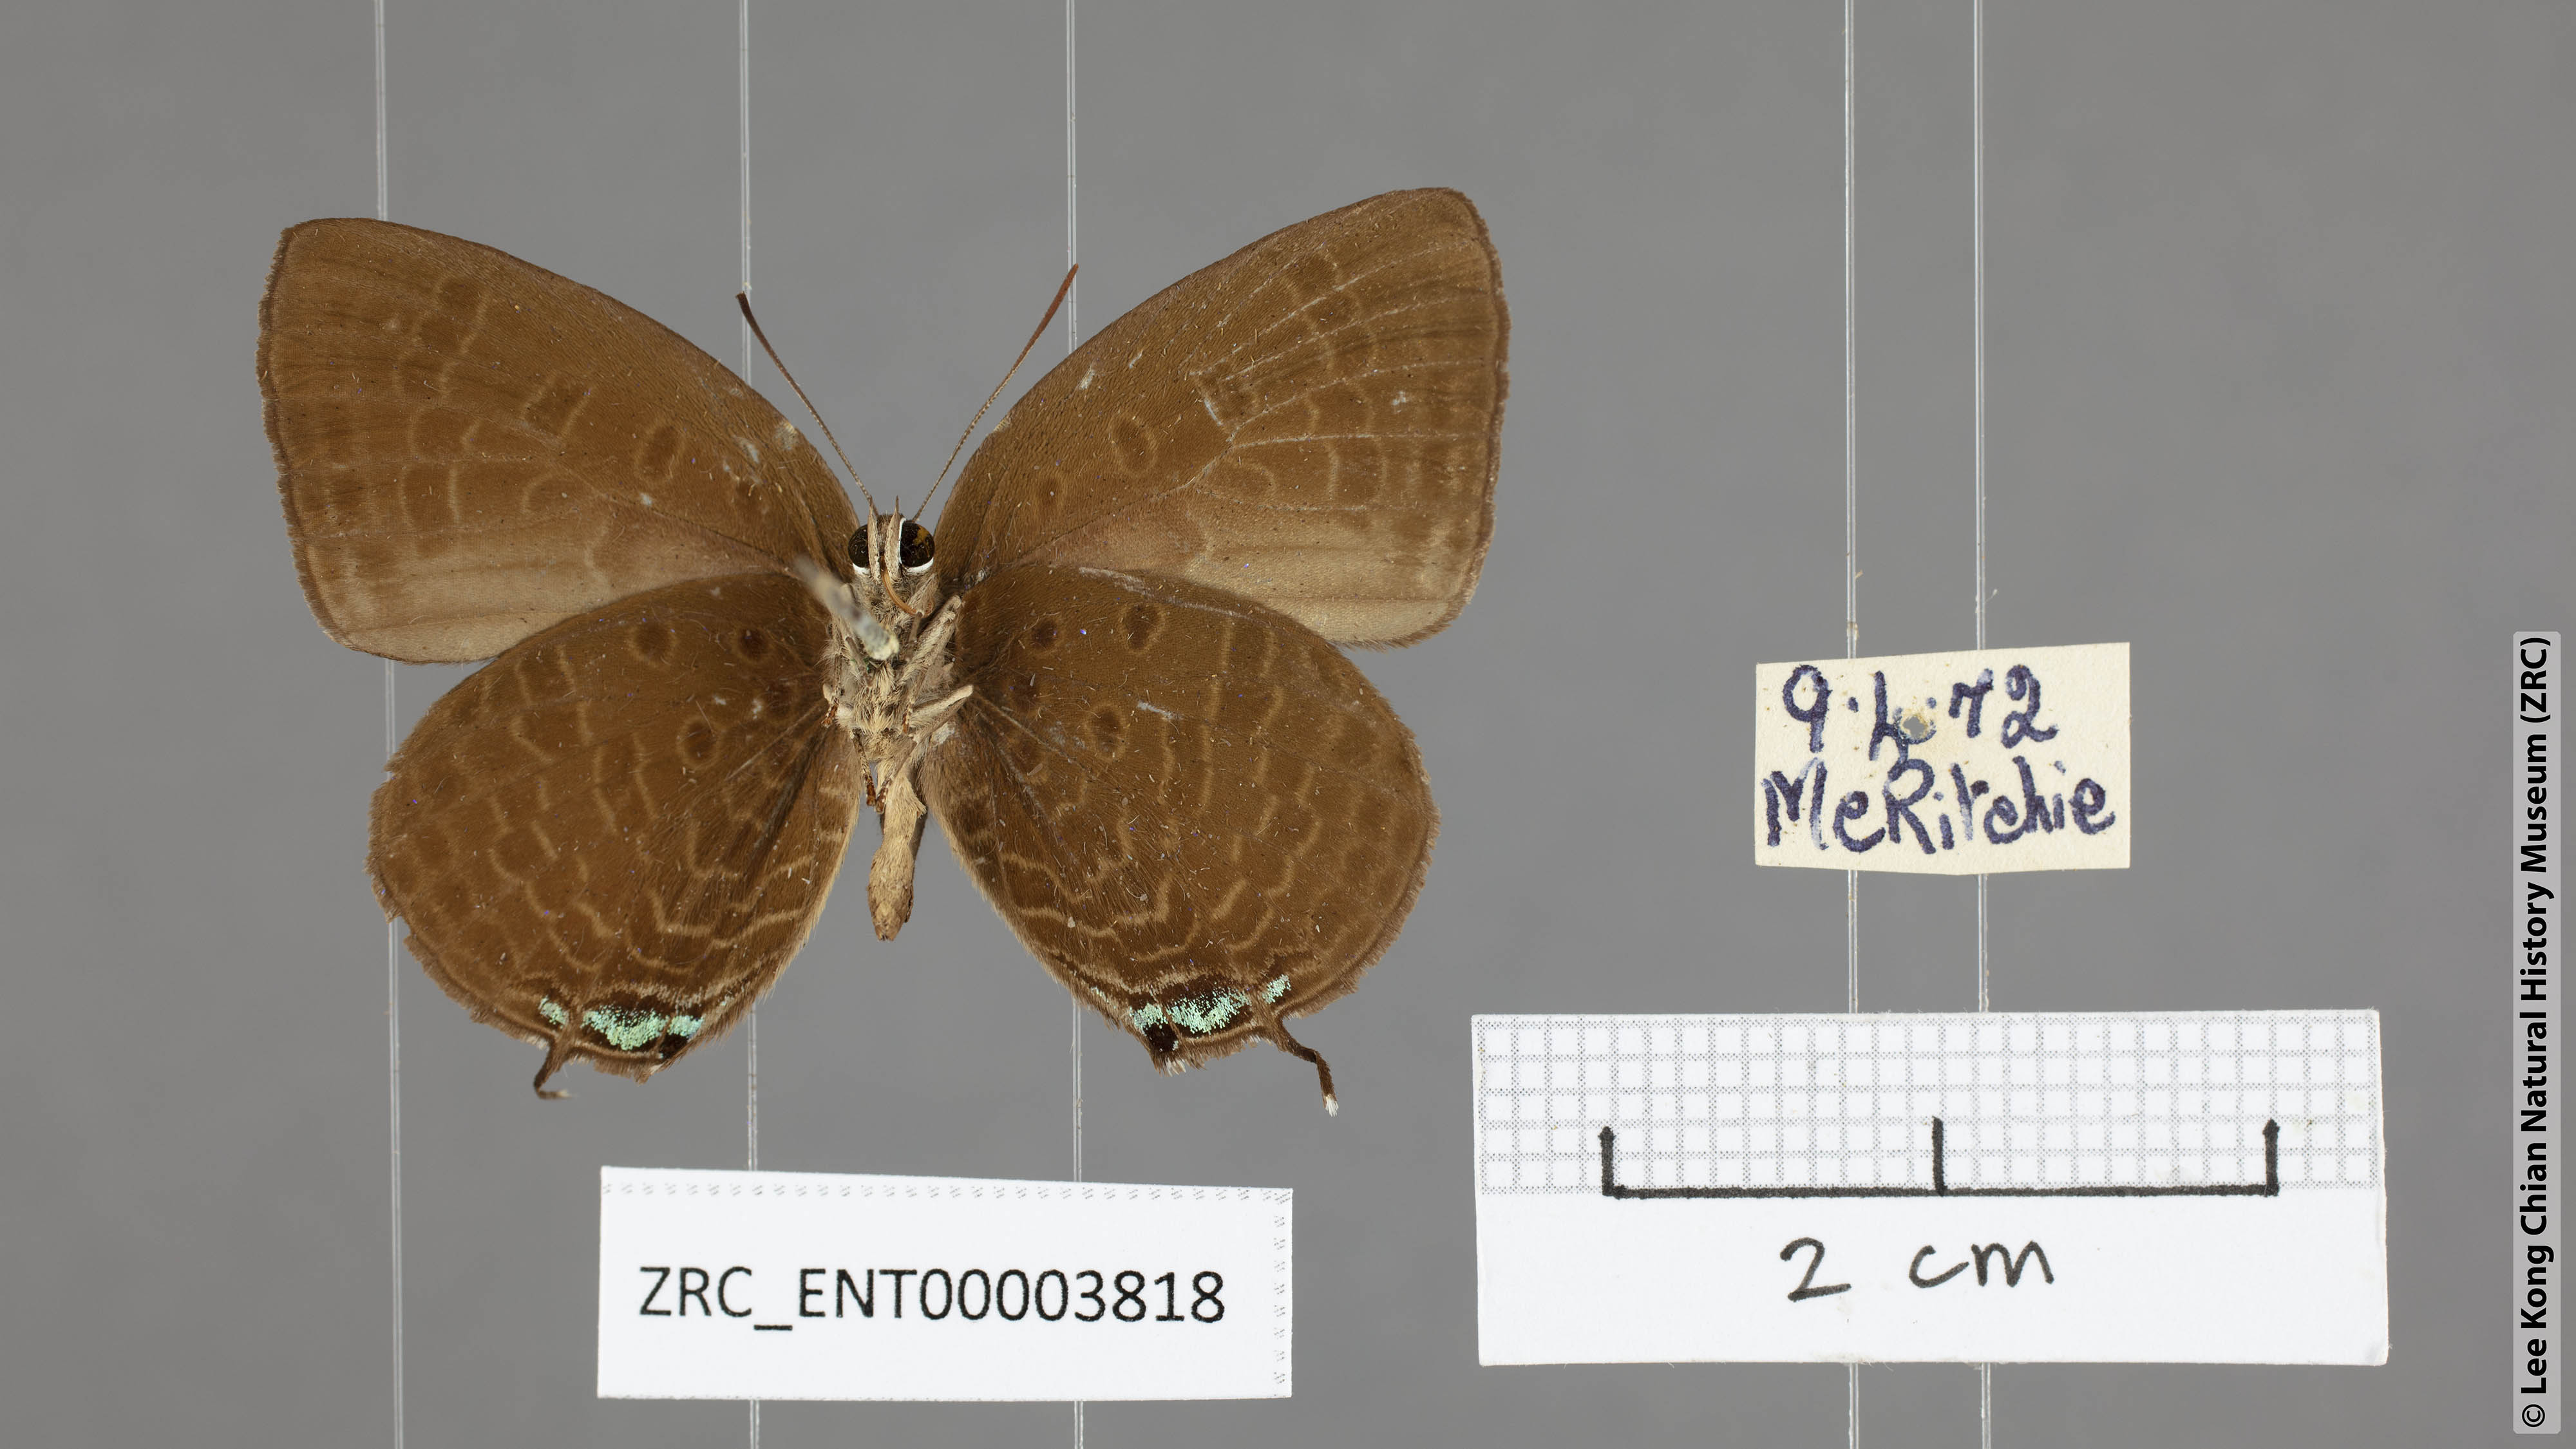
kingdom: Animalia
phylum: Arthropoda
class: Insecta
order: Lepidoptera
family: Lycaenidae
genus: Arhopala
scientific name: Arhopala agrata
